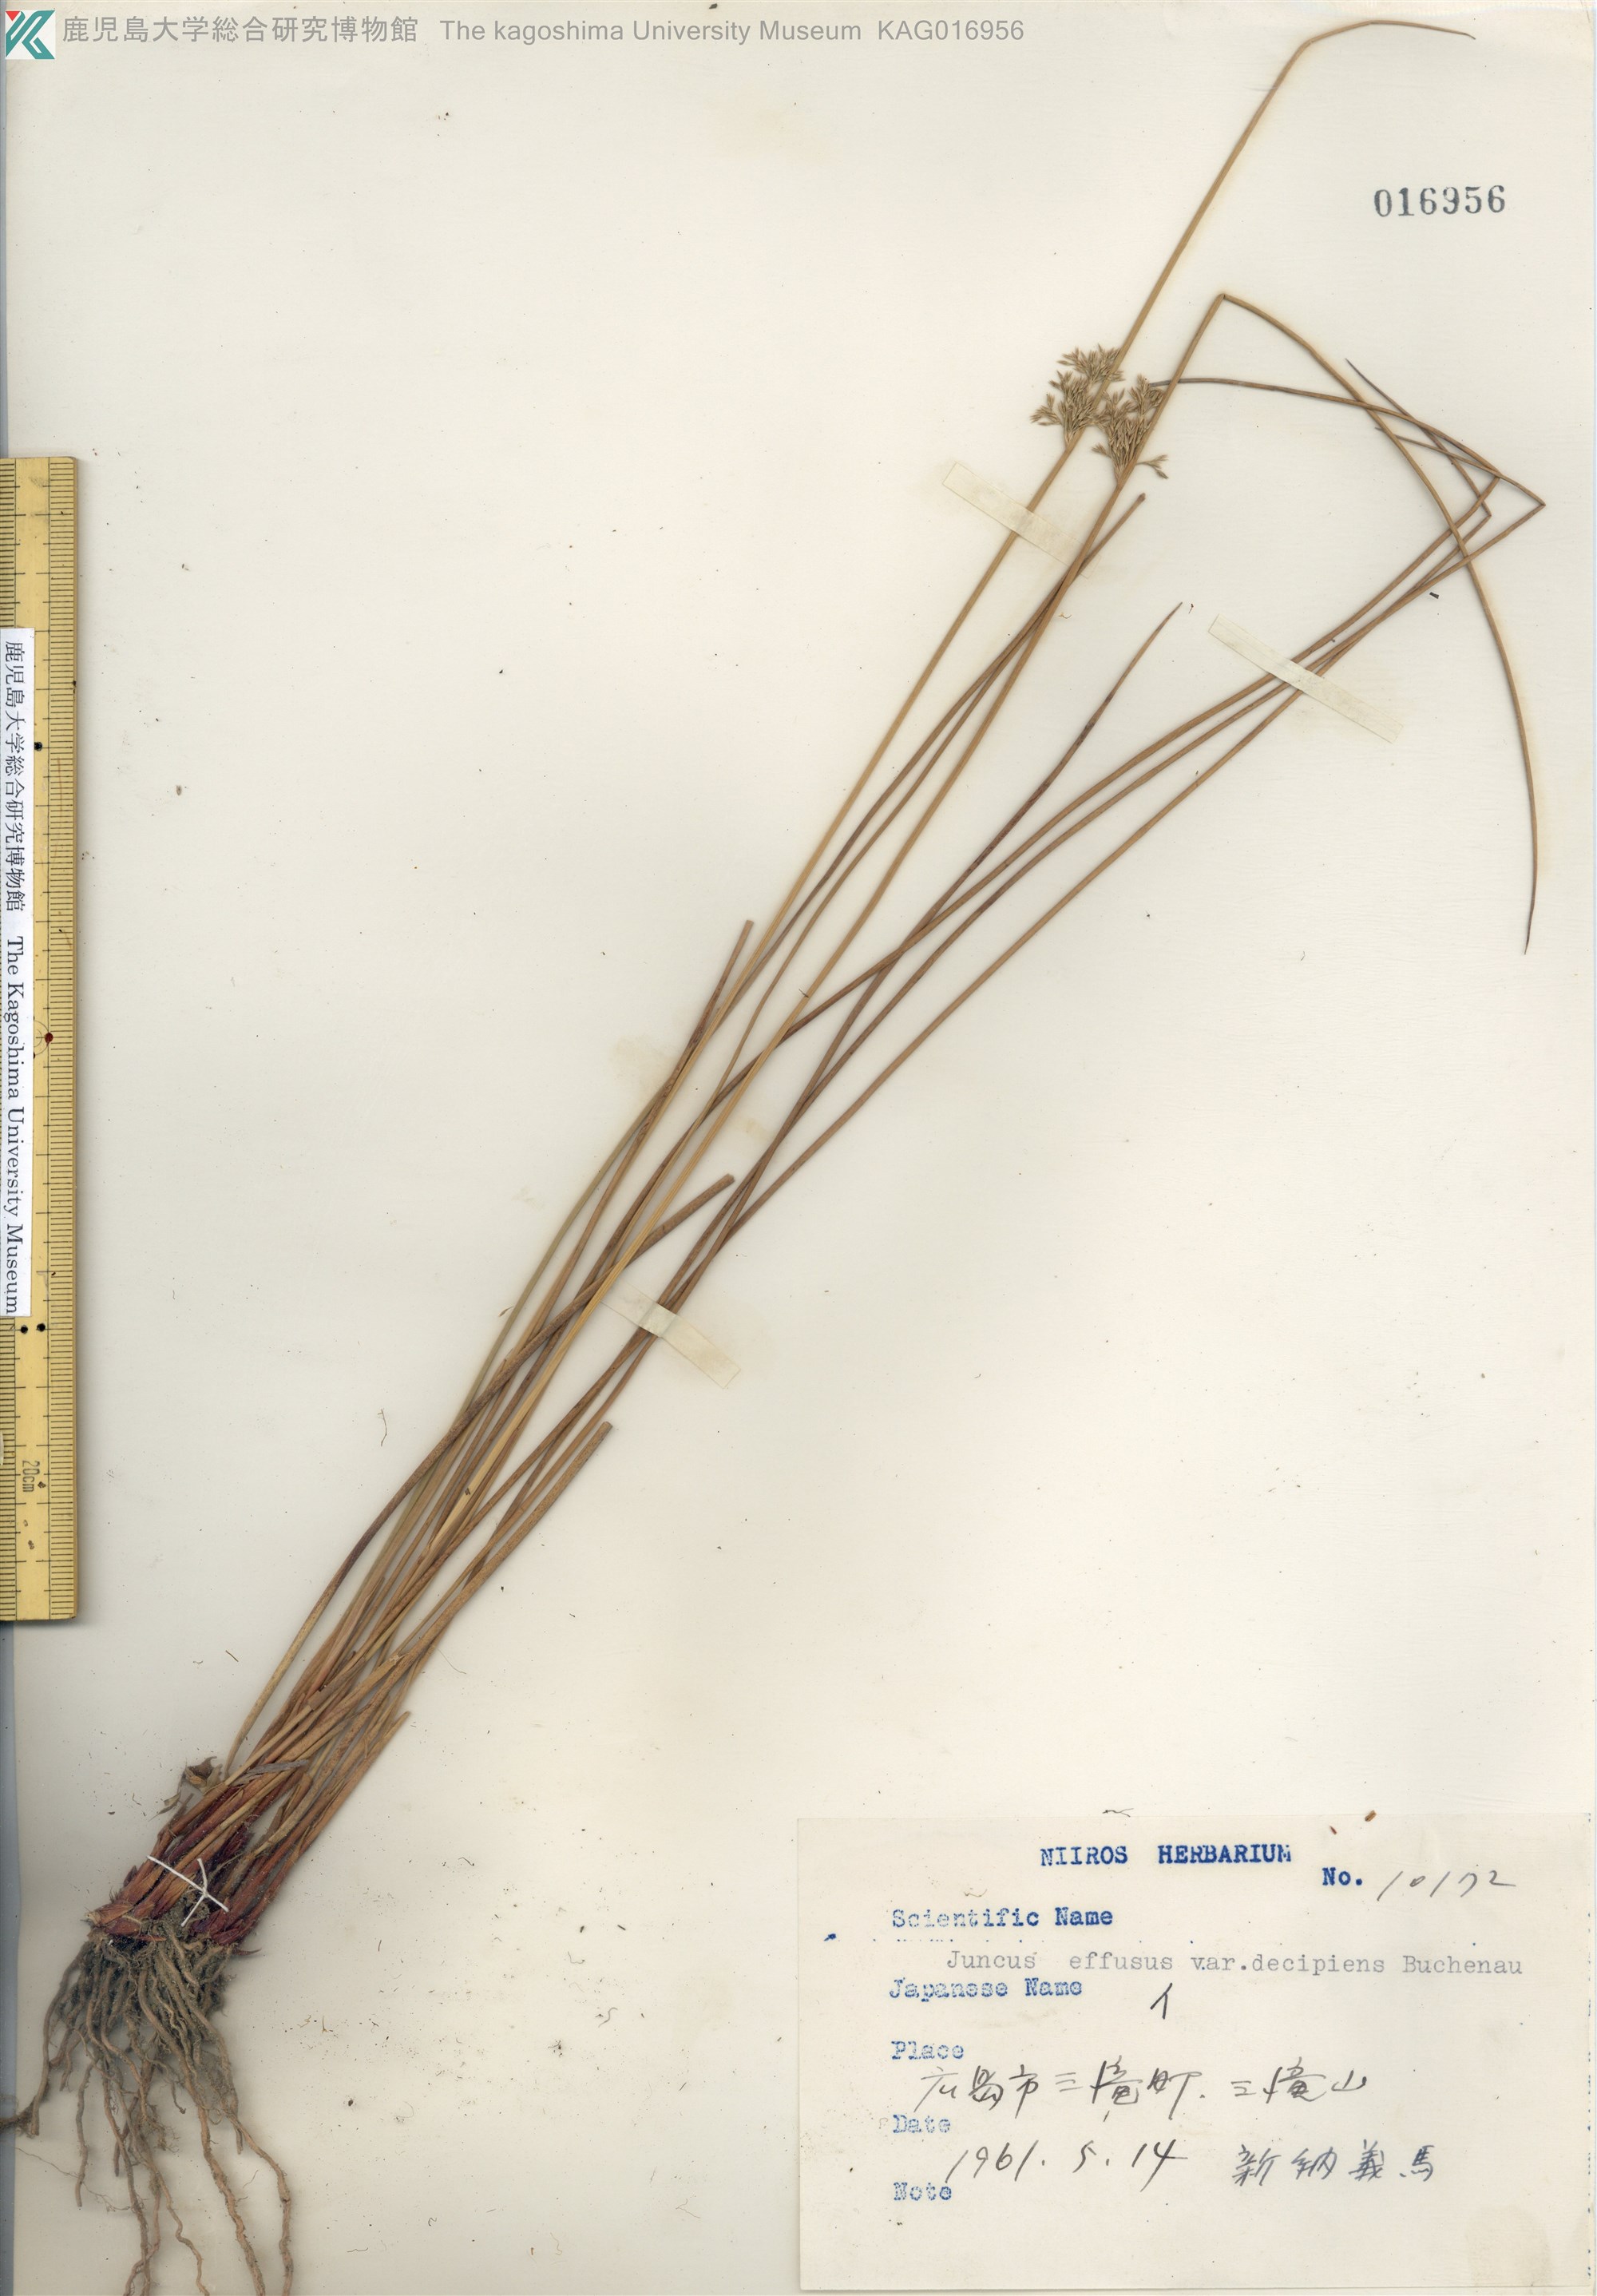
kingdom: Plantae
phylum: Tracheophyta
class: Liliopsida
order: Poales
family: Juncaceae
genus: Juncus
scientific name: Juncus decipiens
